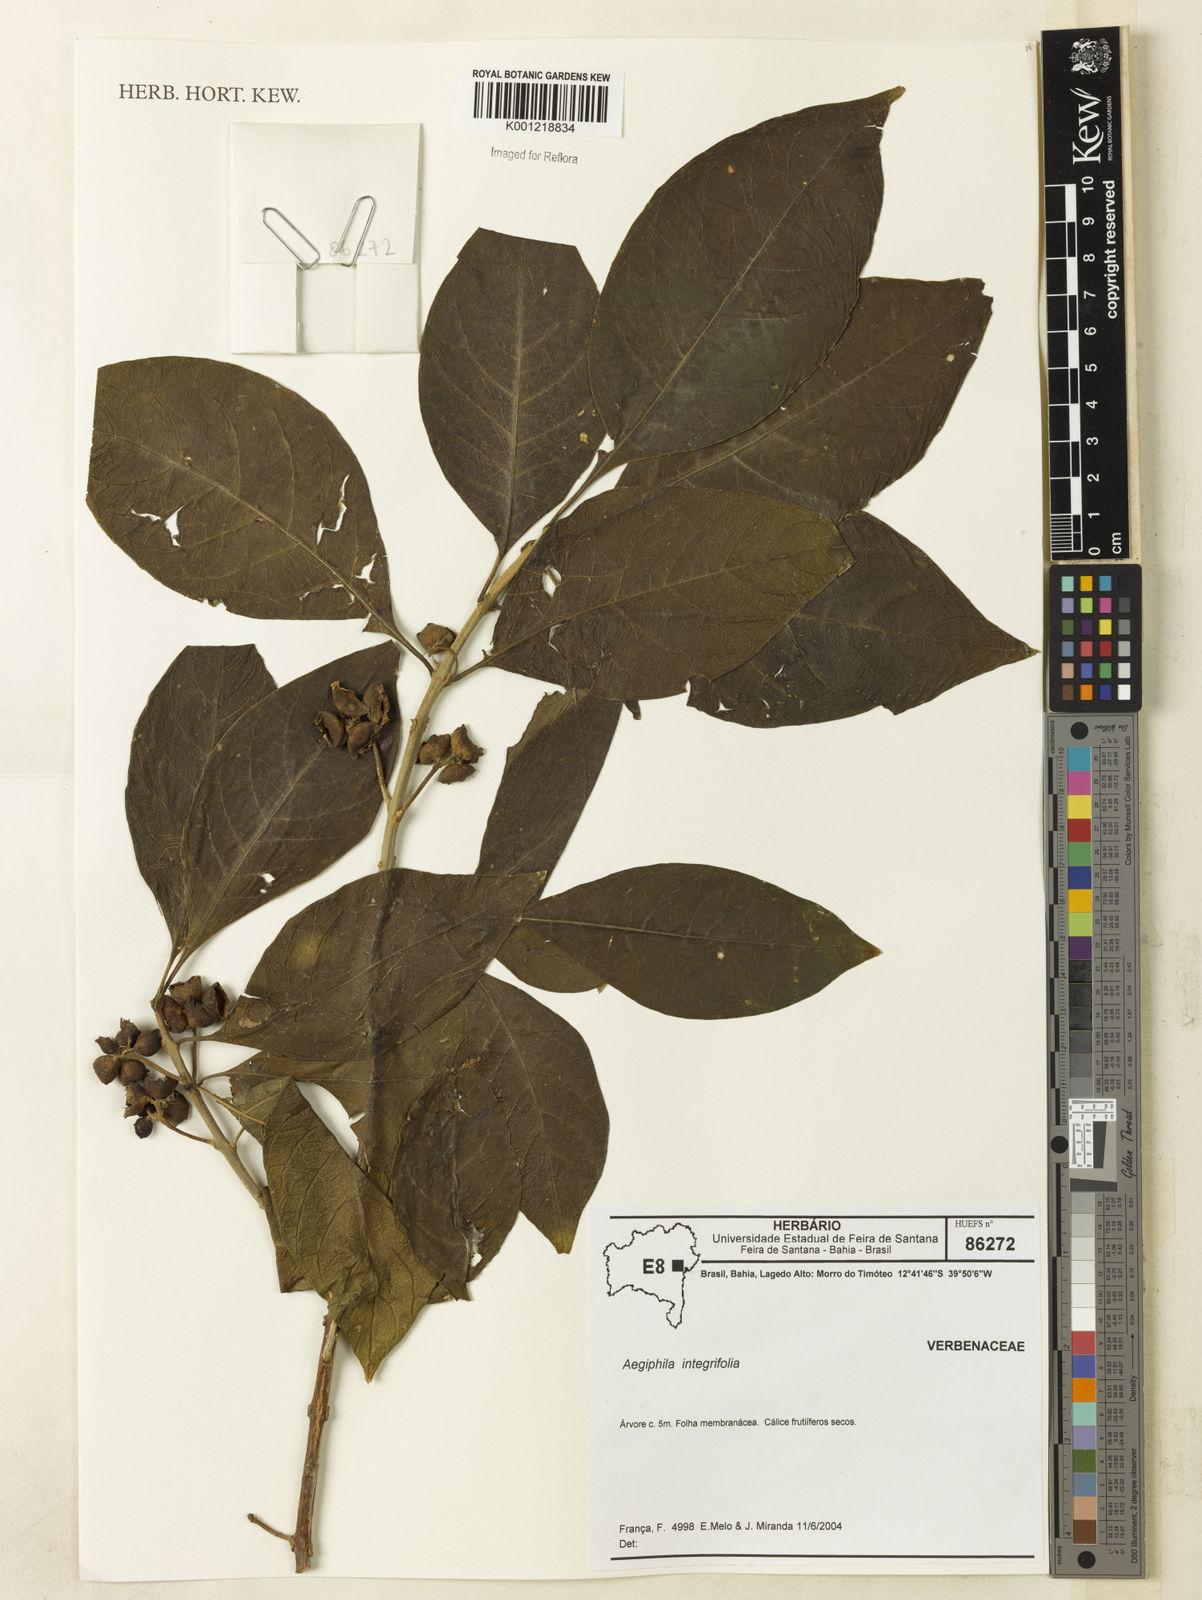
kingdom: Plantae
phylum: Tracheophyta
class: Magnoliopsida
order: Lamiales
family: Lamiaceae
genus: Aegiphila
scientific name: Aegiphila
